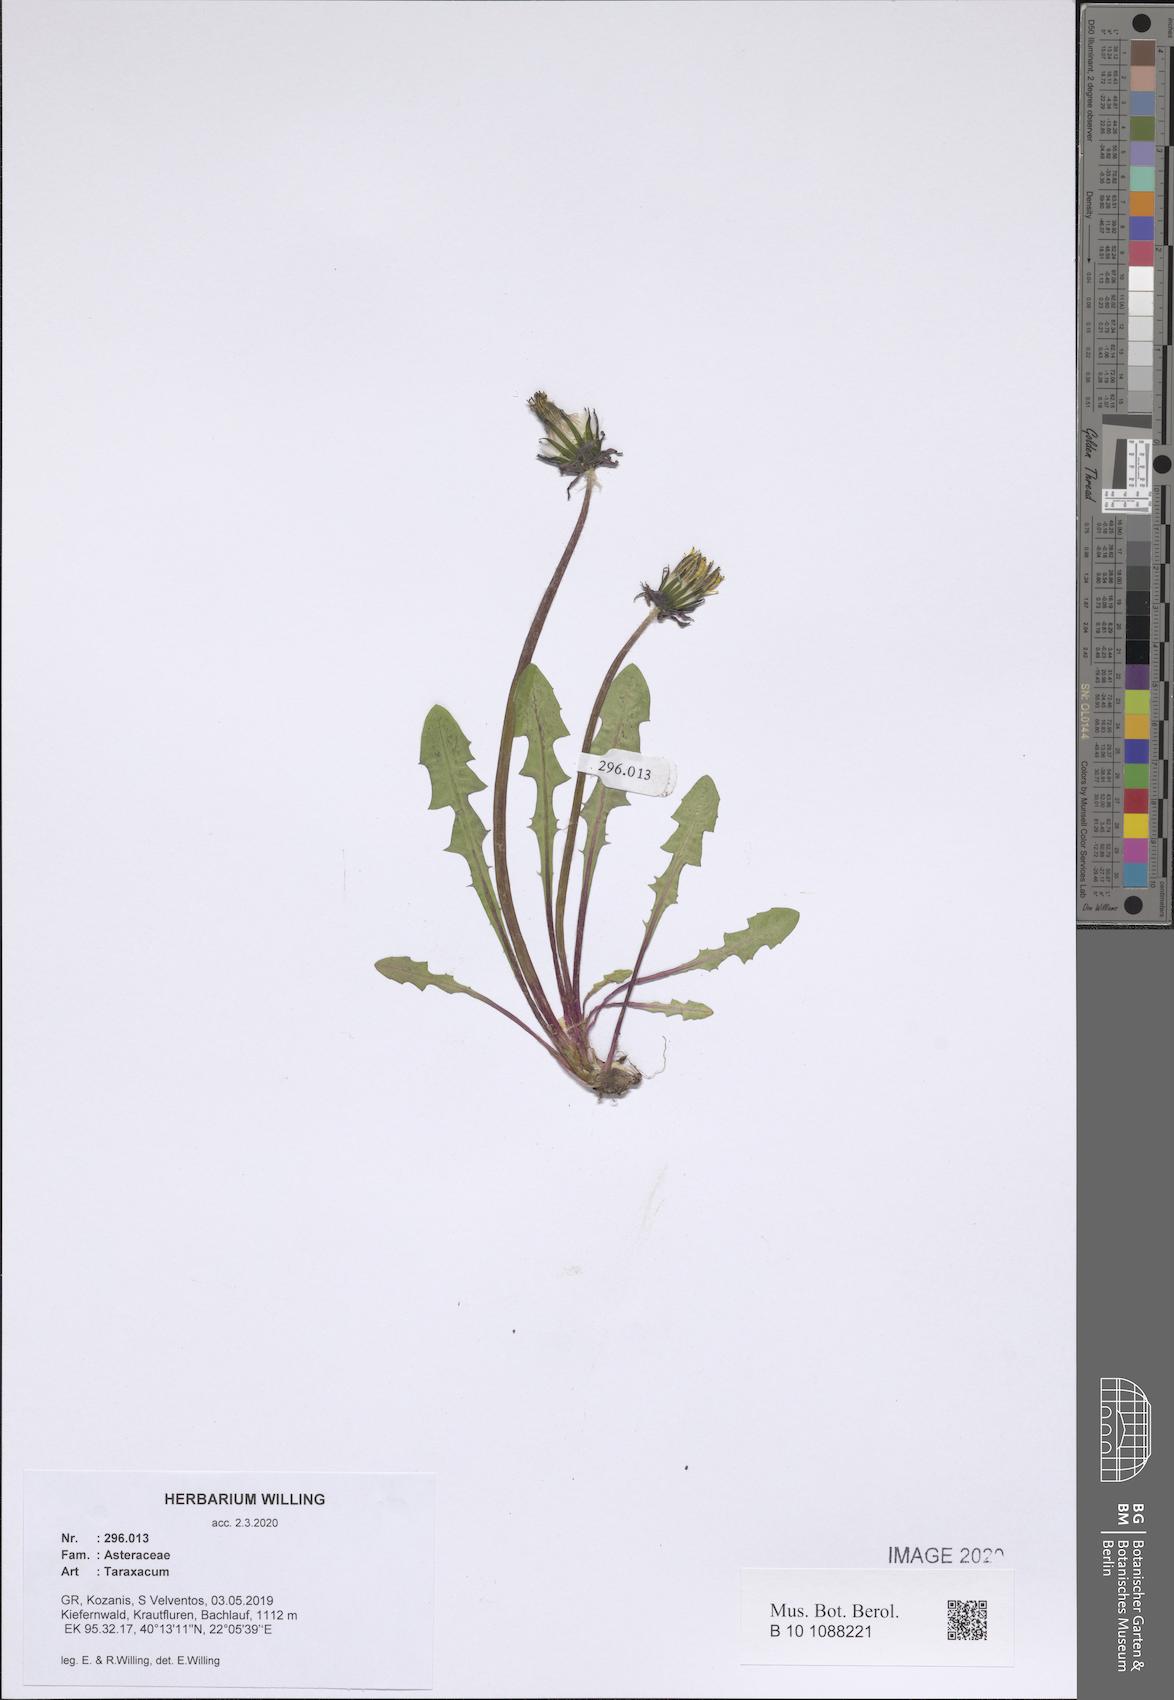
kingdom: Plantae
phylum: Tracheophyta
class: Magnoliopsida
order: Asterales
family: Asteraceae
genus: Taraxacum
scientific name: Taraxacum
